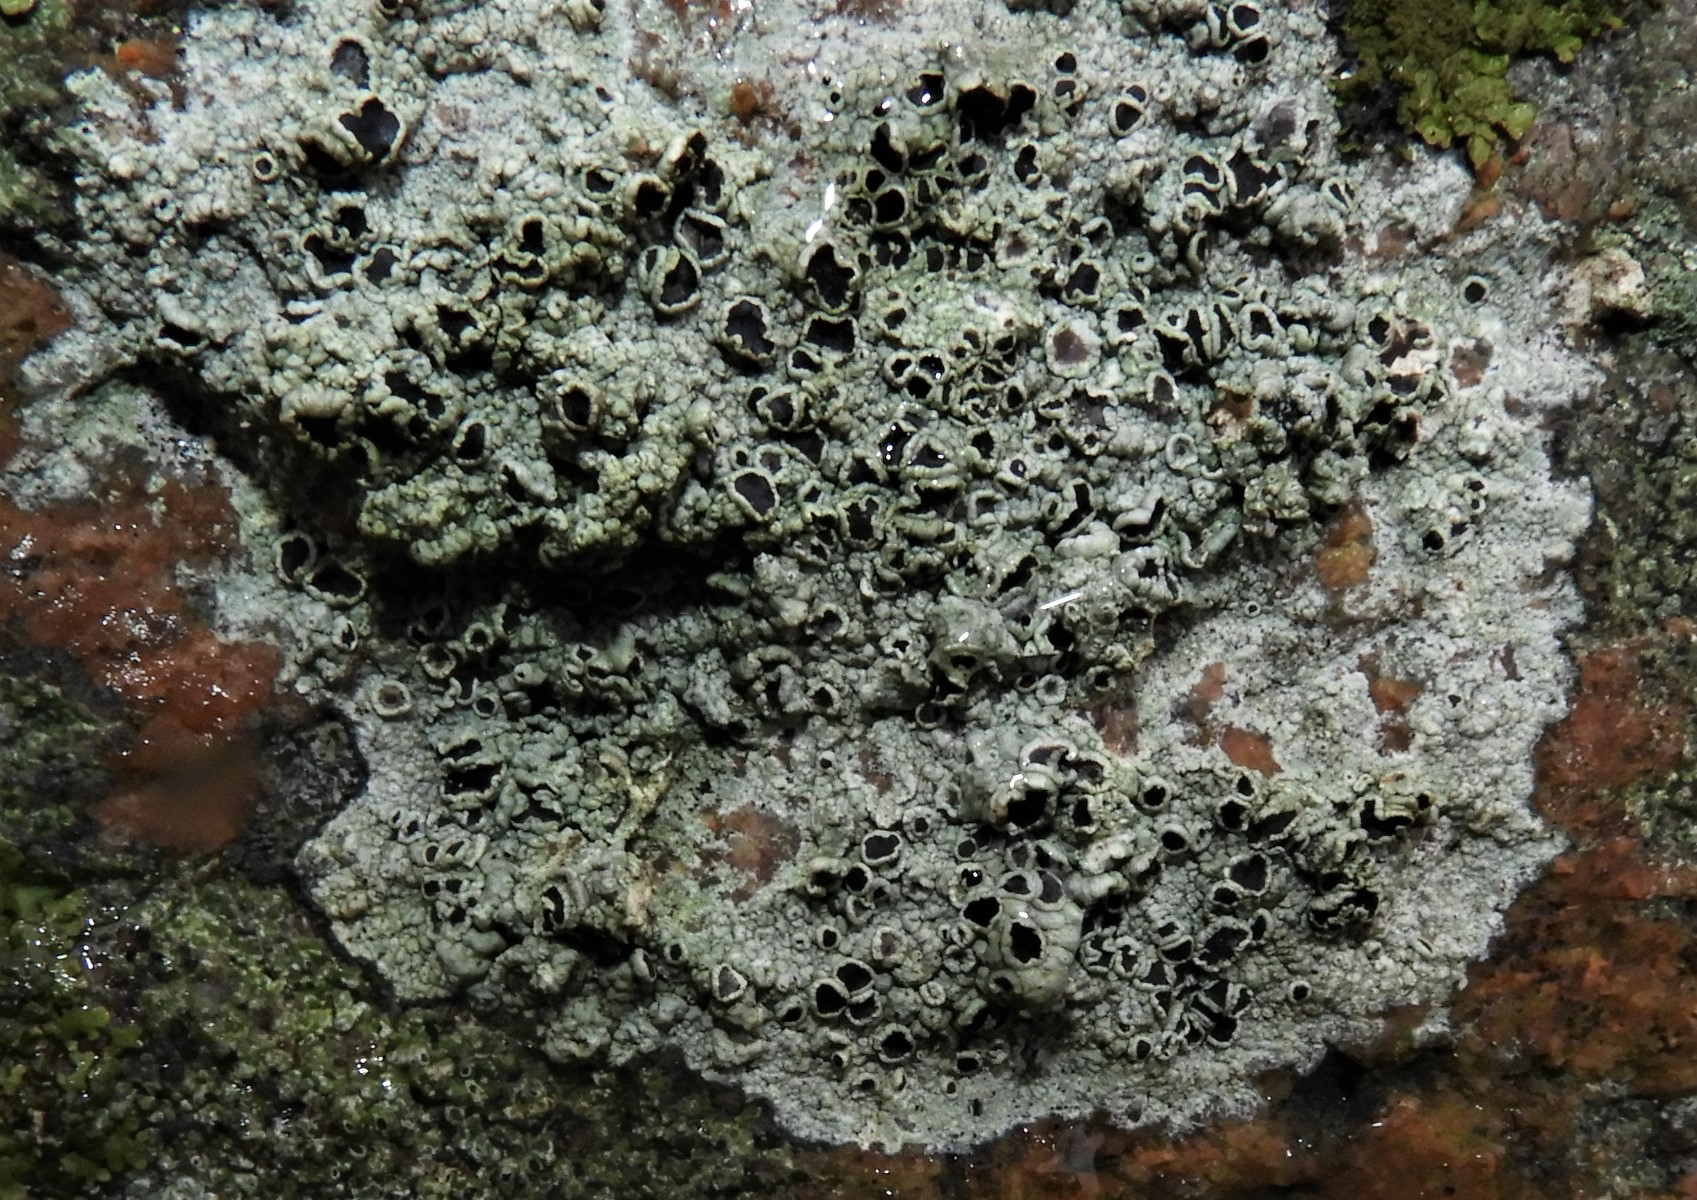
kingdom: Fungi
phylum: Ascomycota
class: Lecanoromycetes
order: Lecanorales
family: Tephromelataceae
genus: Tephromela
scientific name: Tephromela atra
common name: sortfrugtet kantskivelav
